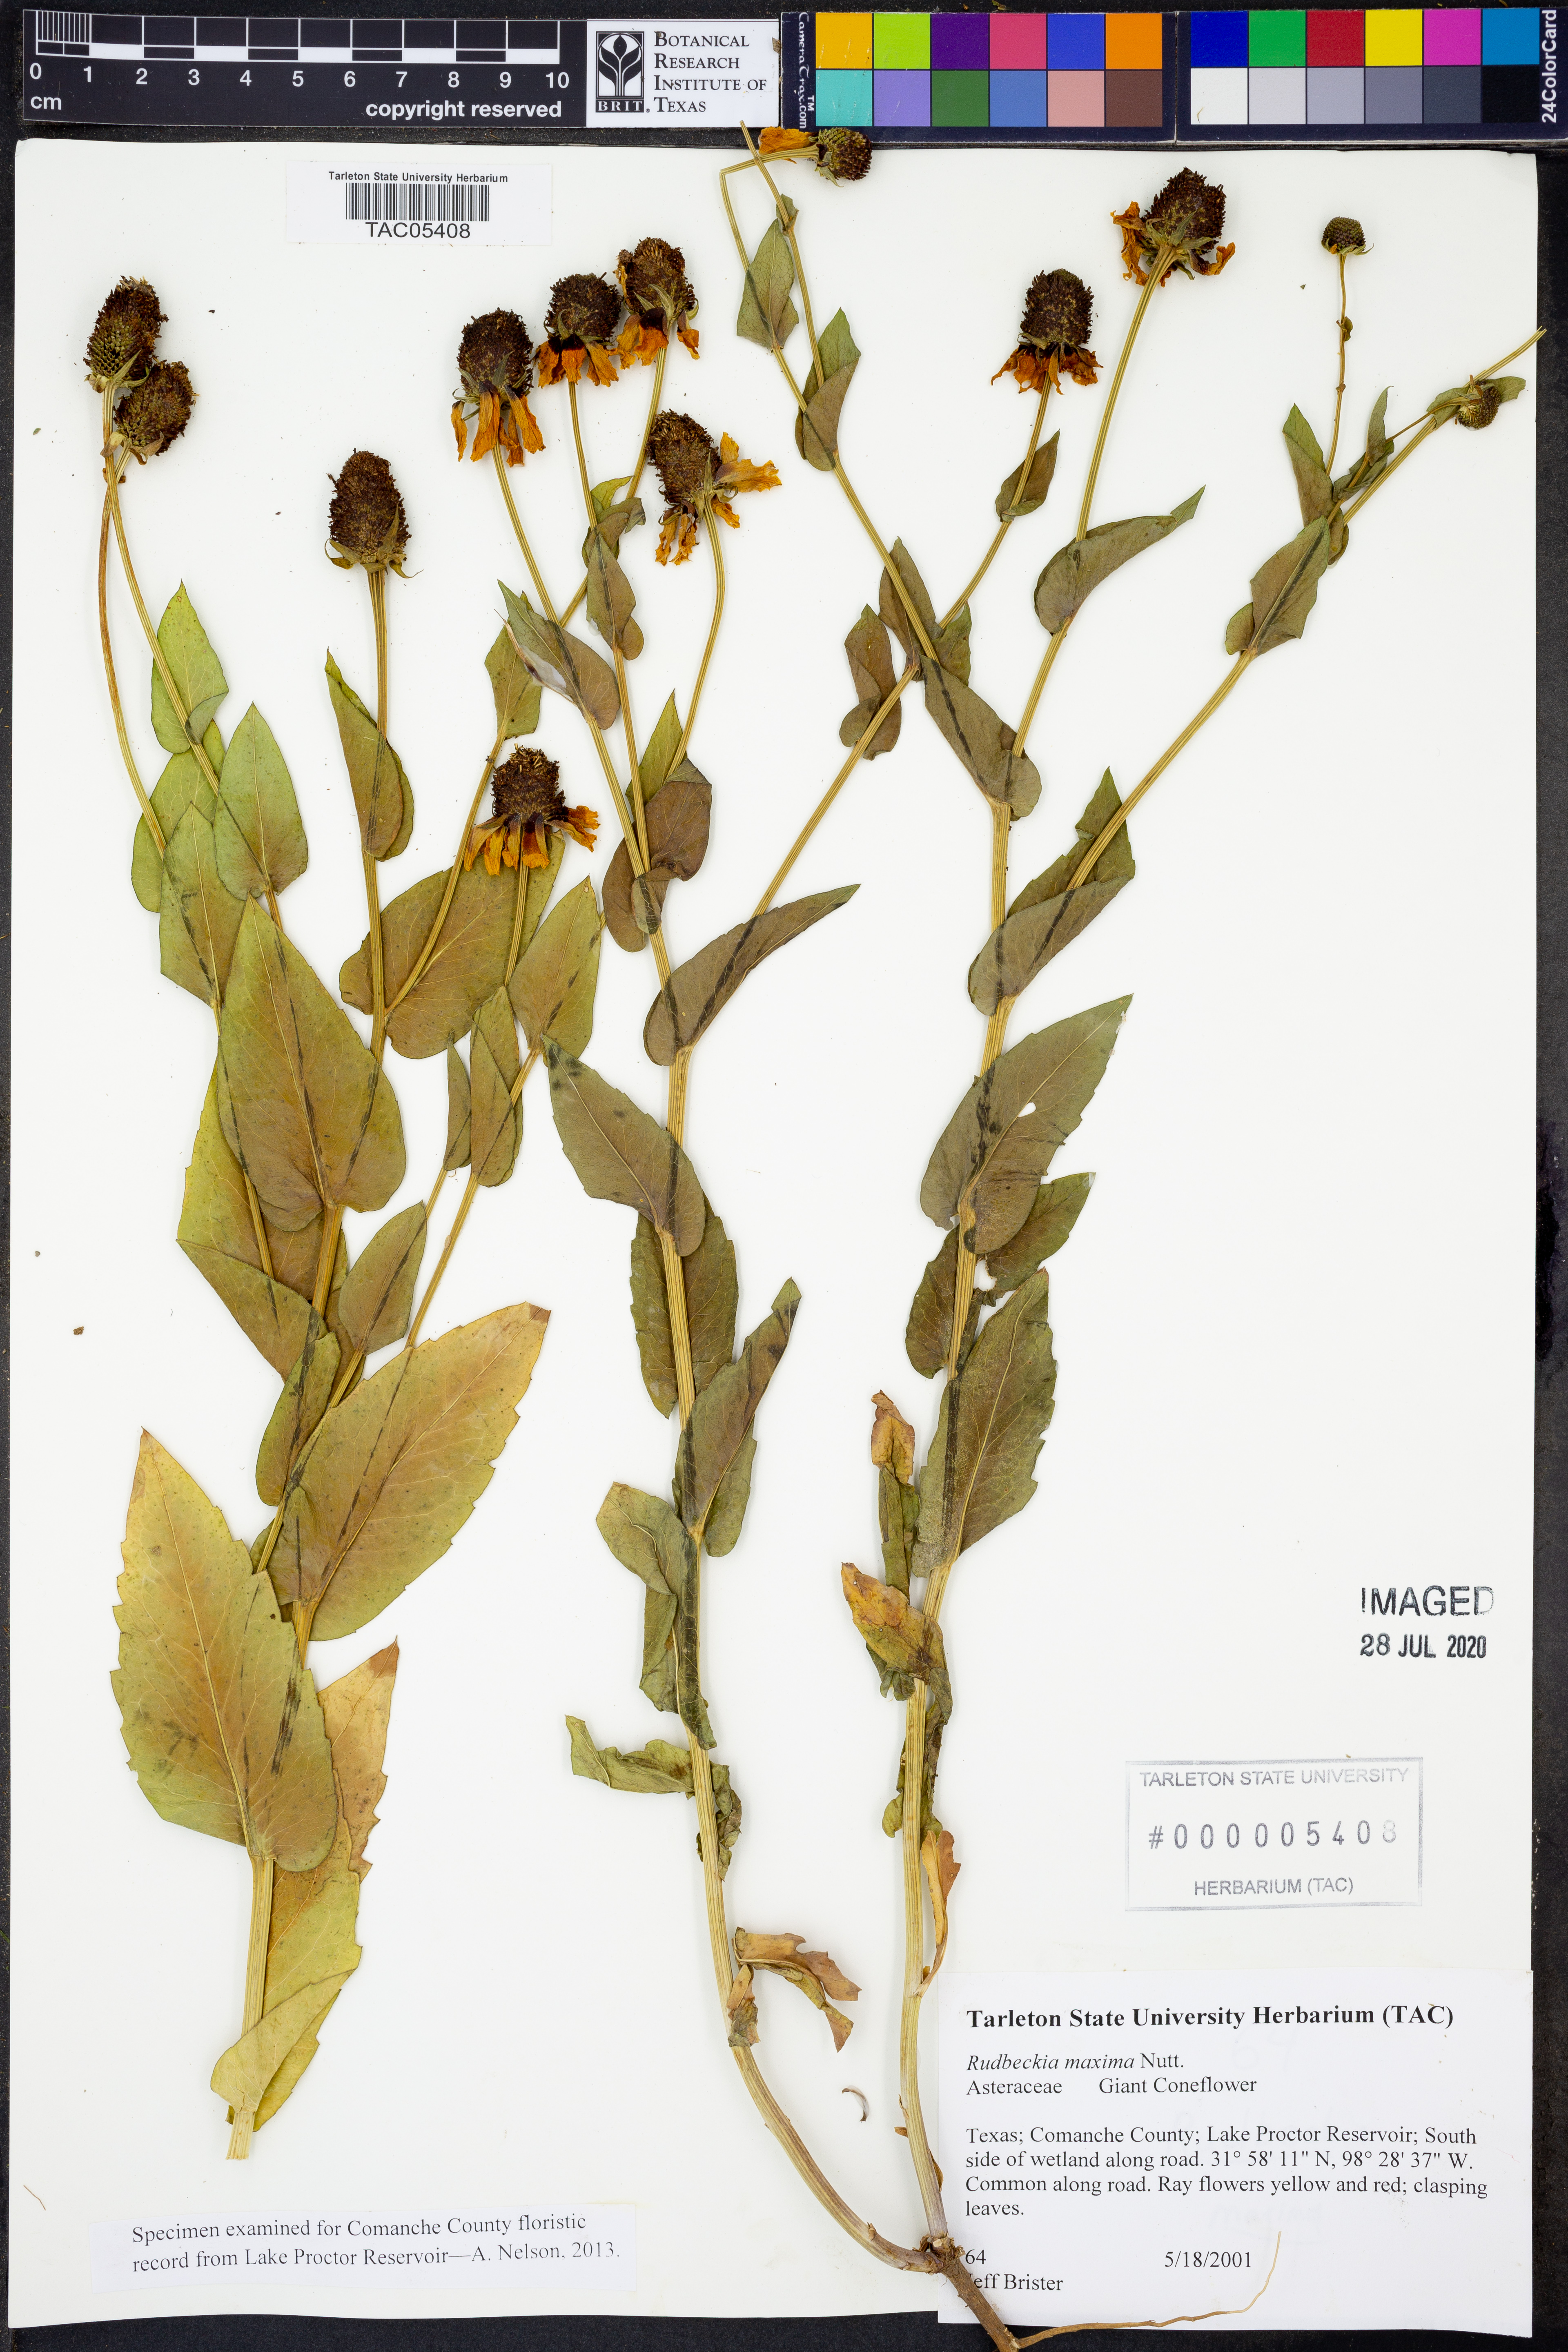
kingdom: Plantae
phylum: Tracheophyta
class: Magnoliopsida
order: Asterales
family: Asteraceae
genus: Rudbeckia
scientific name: Rudbeckia maxima
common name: Cabbage coneflower
